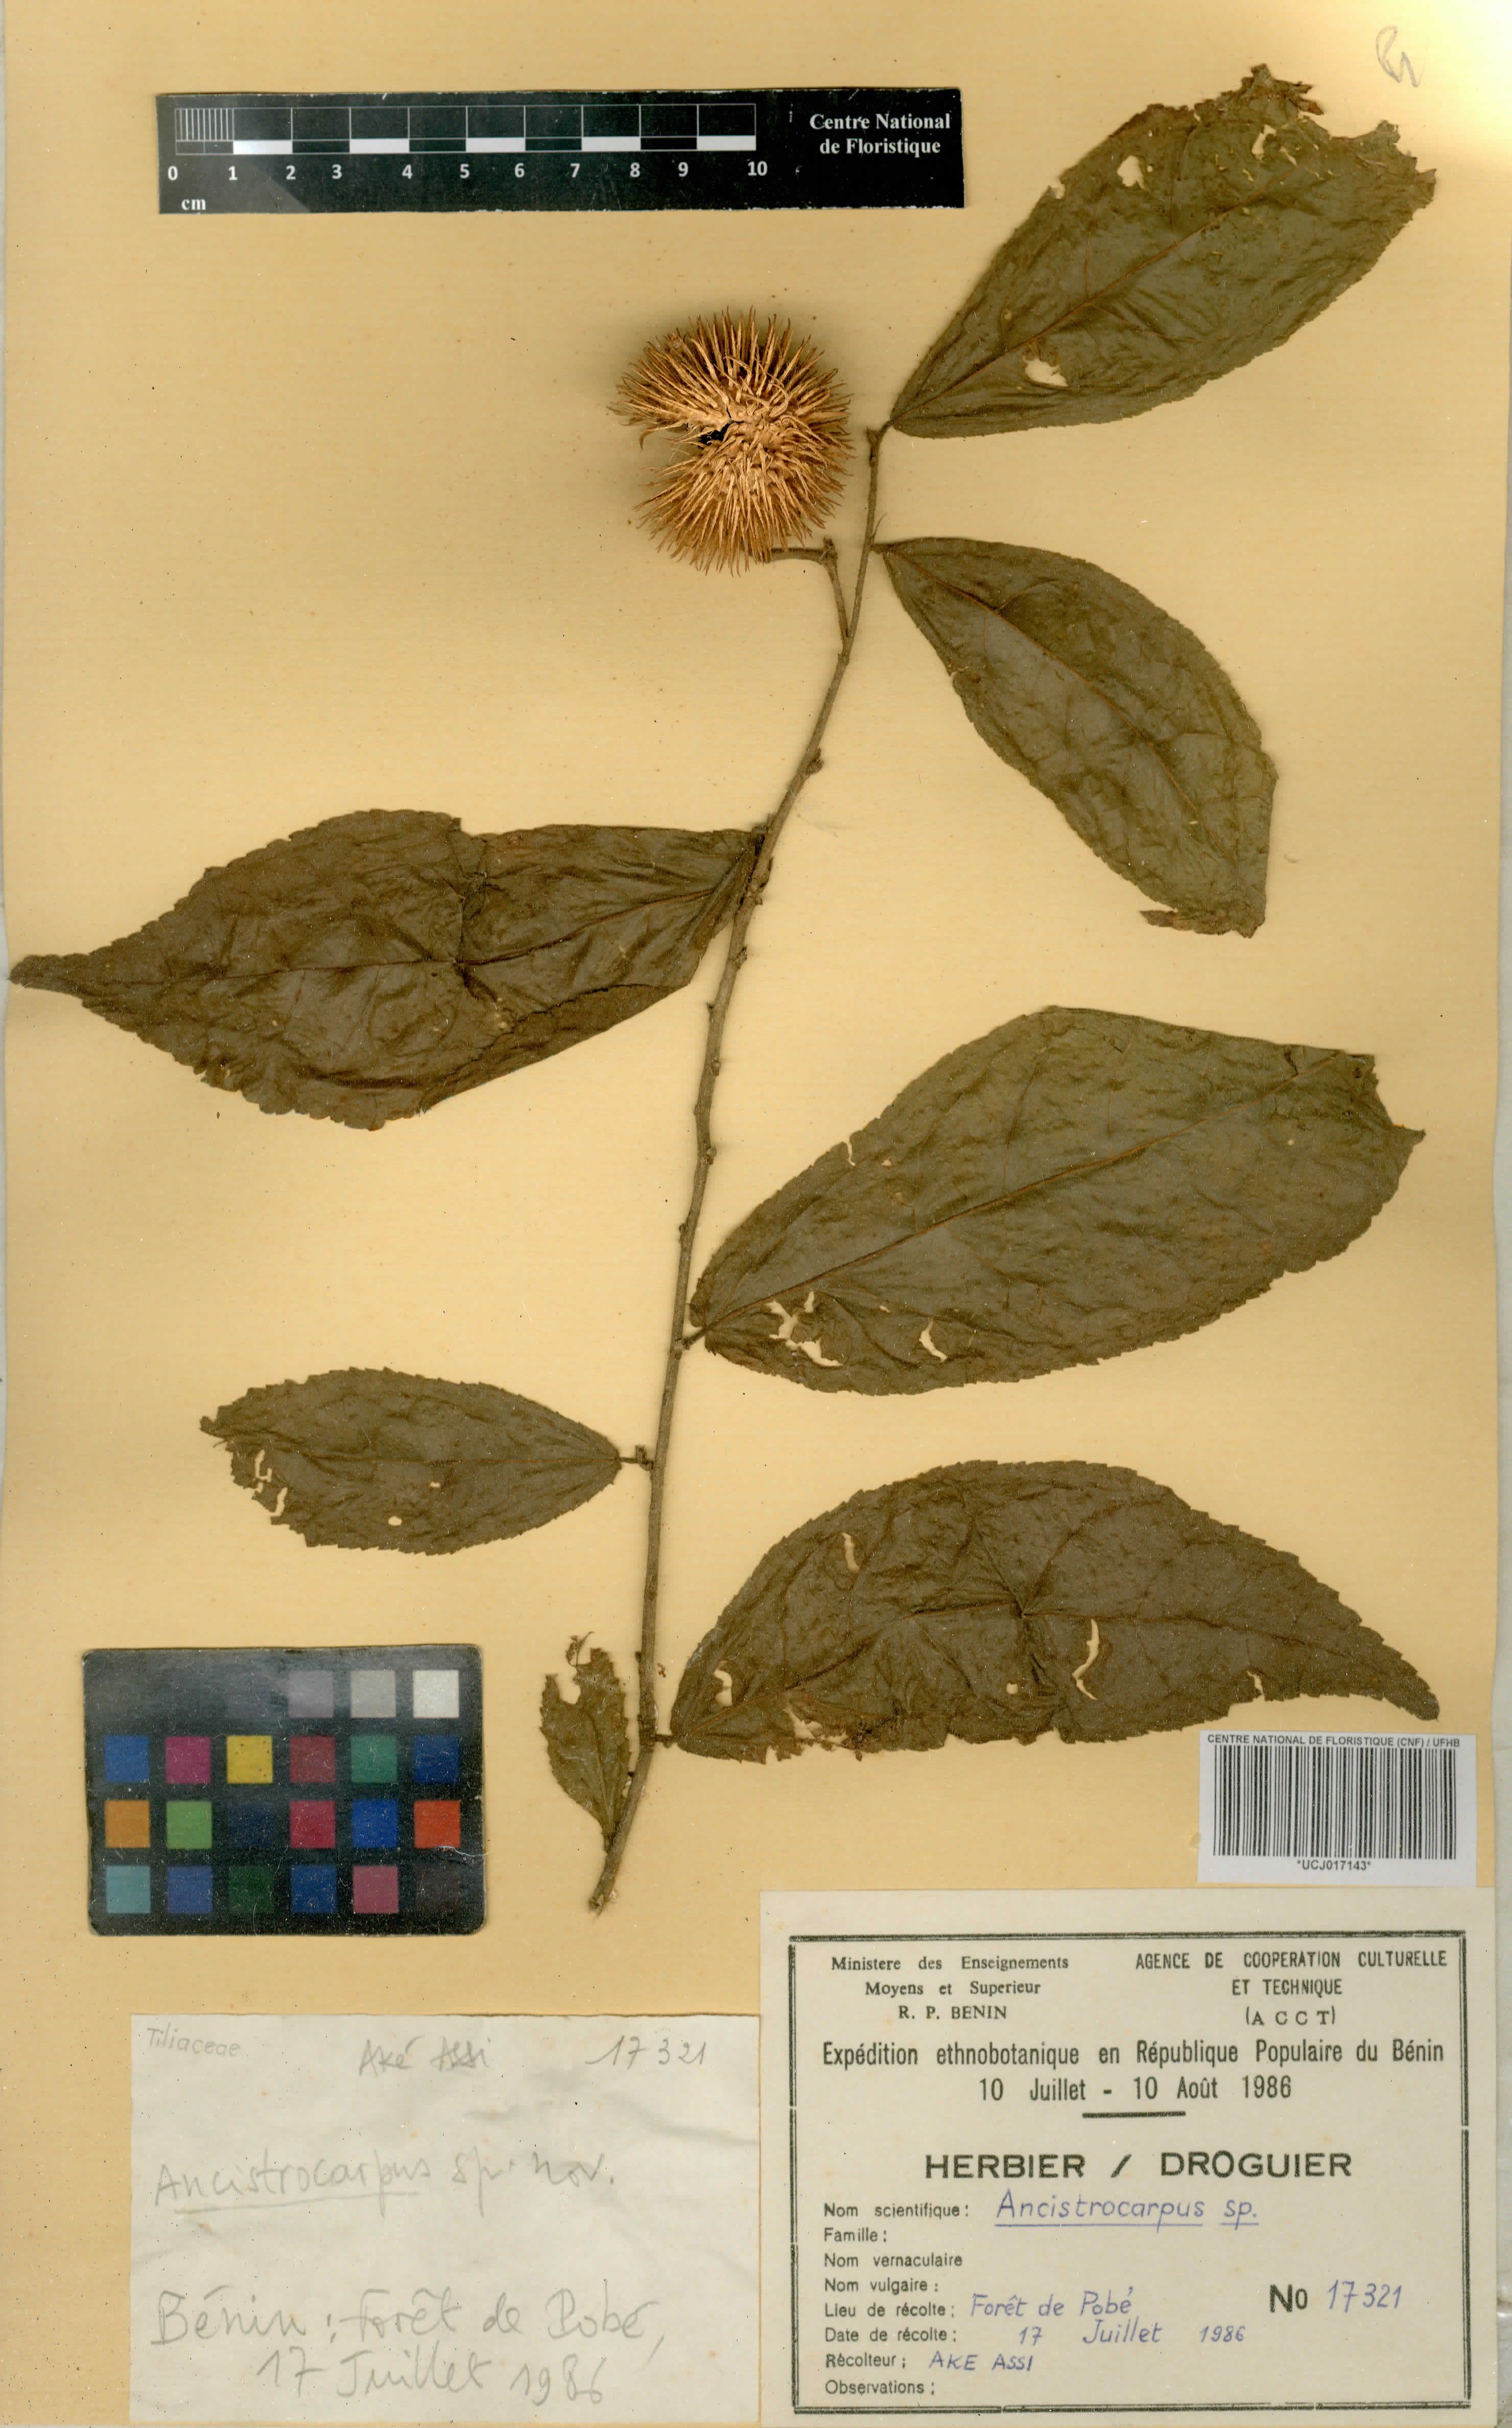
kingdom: Plantae
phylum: Tracheophyta
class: Magnoliopsida
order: Malvales
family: Malvaceae
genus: Ancistrocarpus
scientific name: Ancistrocarpus
